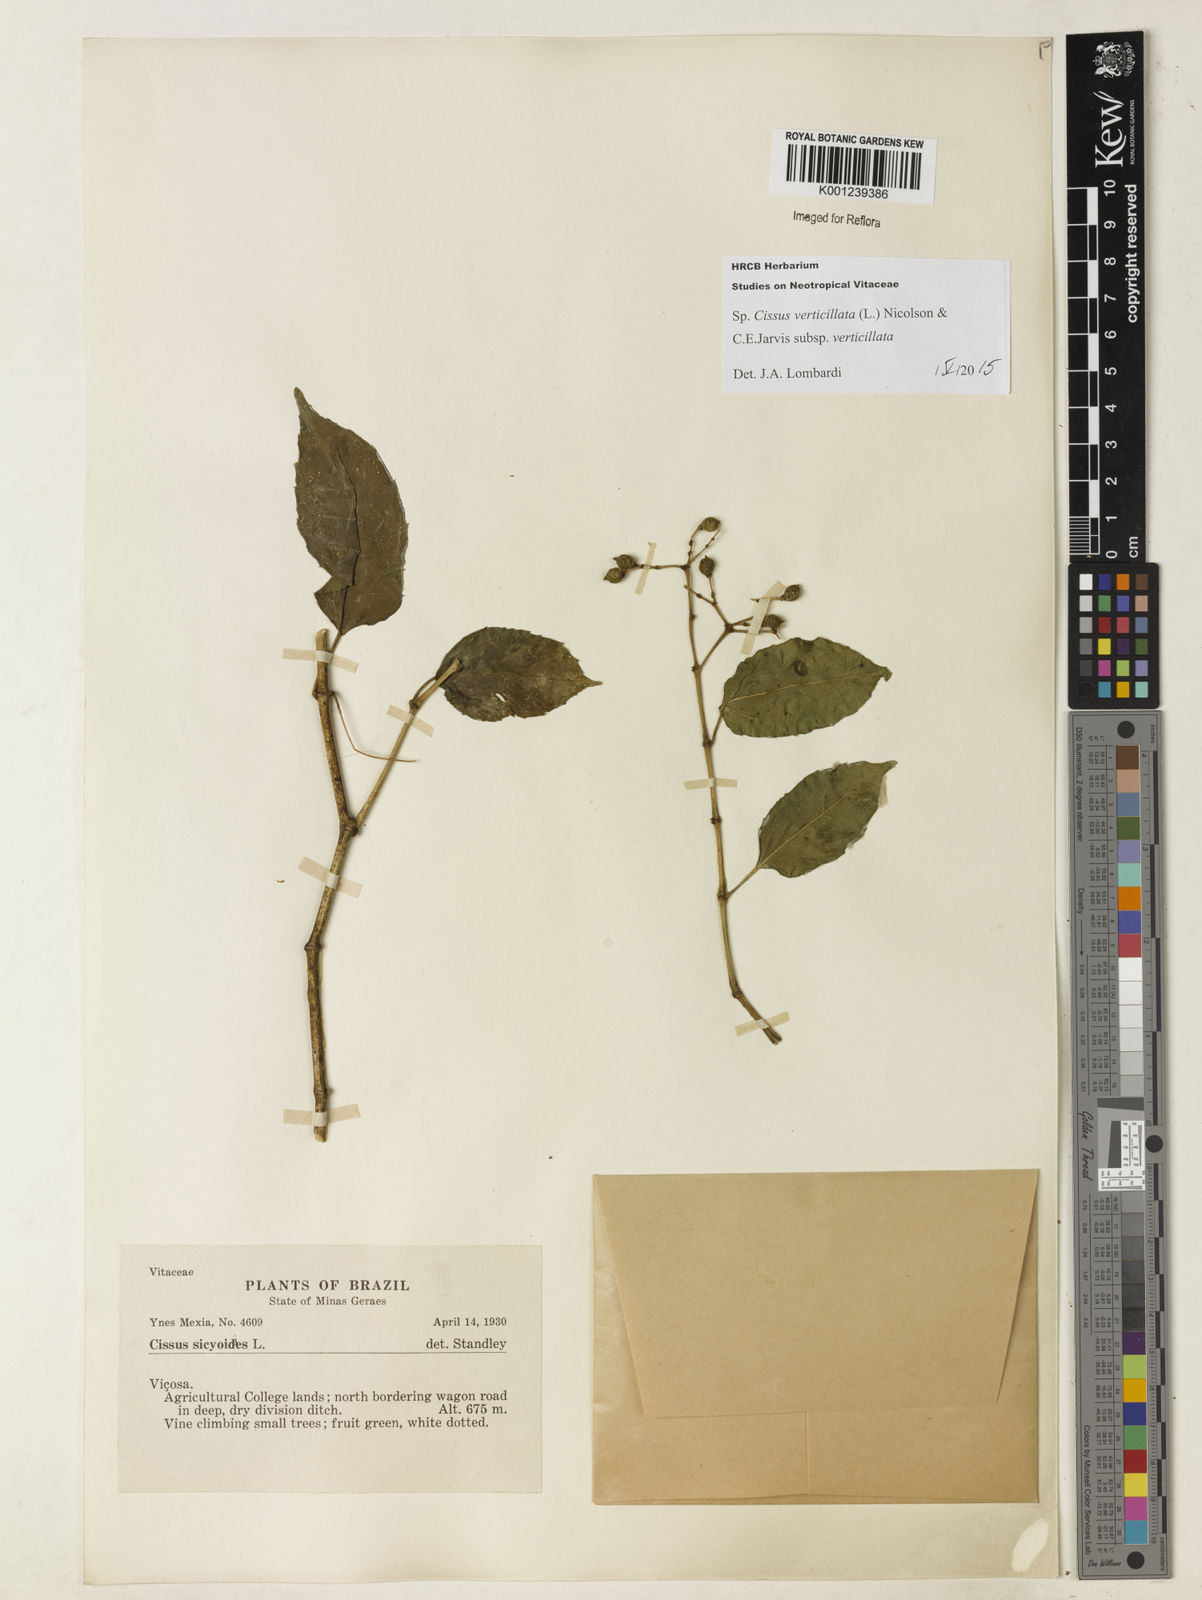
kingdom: Plantae
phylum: Tracheophyta
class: Magnoliopsida
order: Vitales
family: Vitaceae
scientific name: Vitaceae
